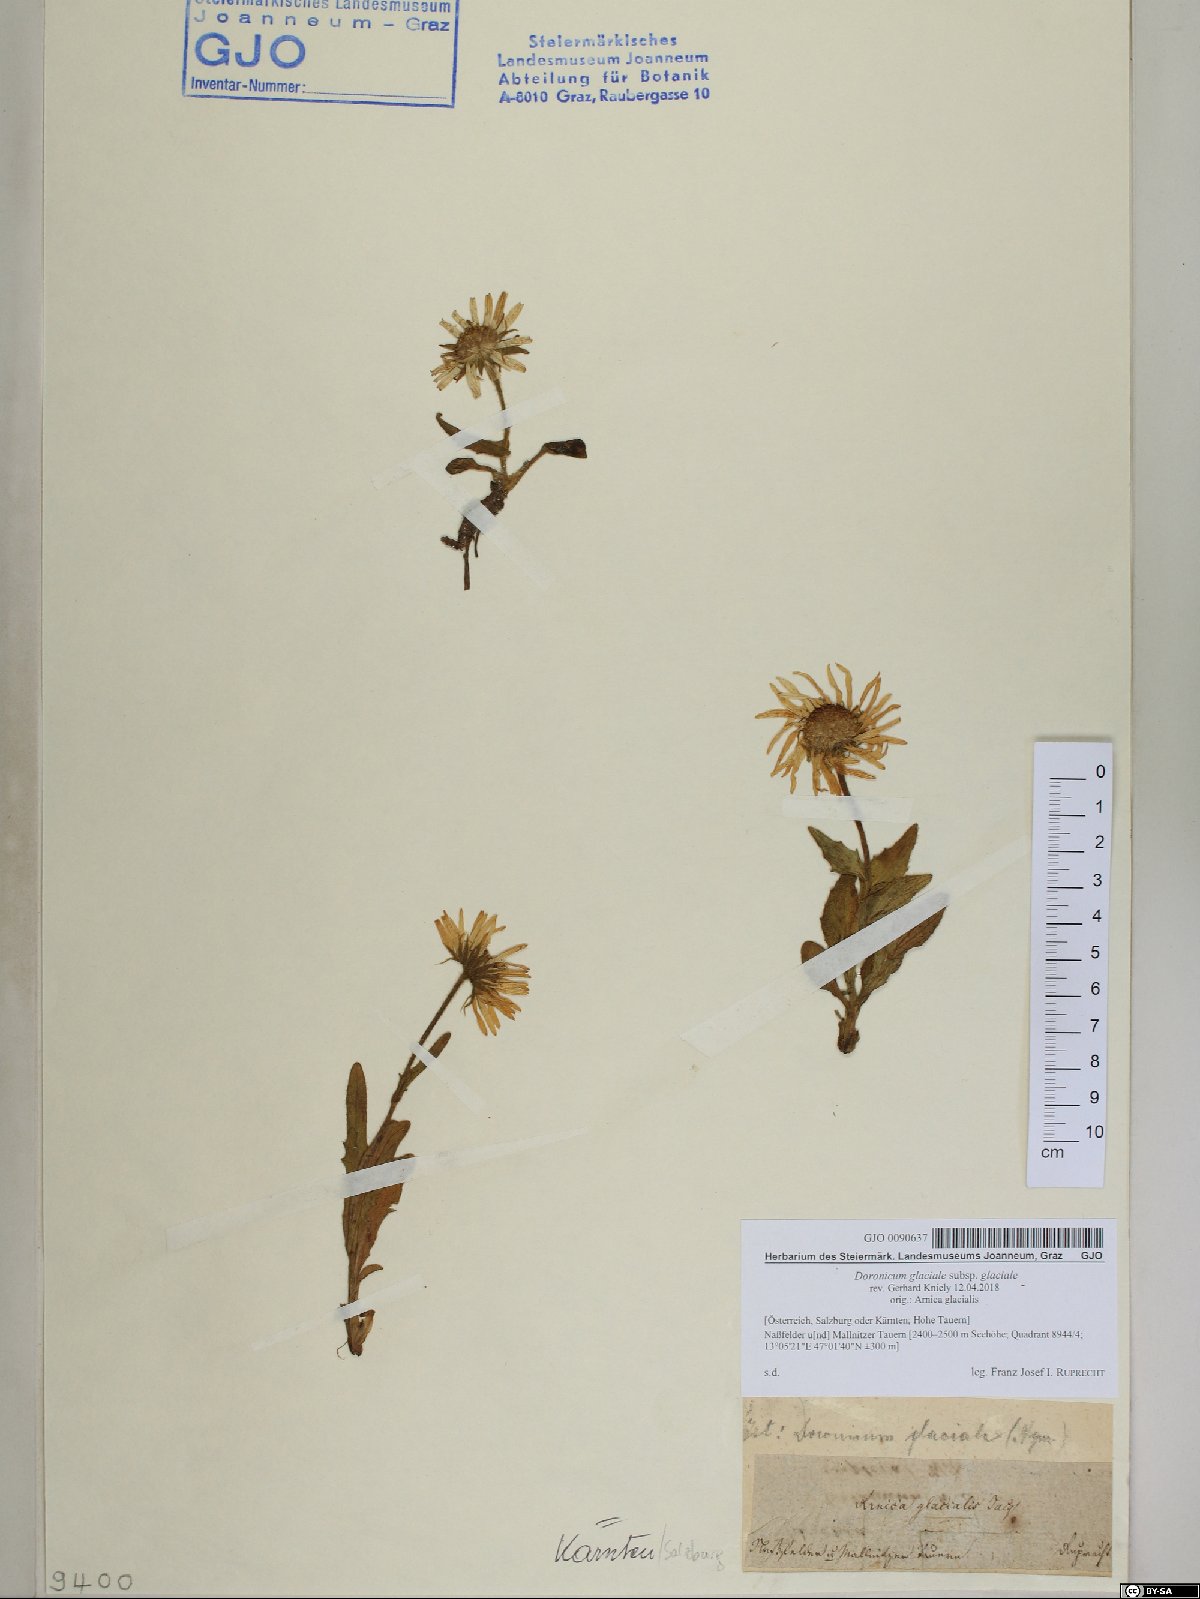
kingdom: Plantae
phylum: Tracheophyta
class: Magnoliopsida
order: Asterales
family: Asteraceae
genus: Doronicum
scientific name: Doronicum glaciale
